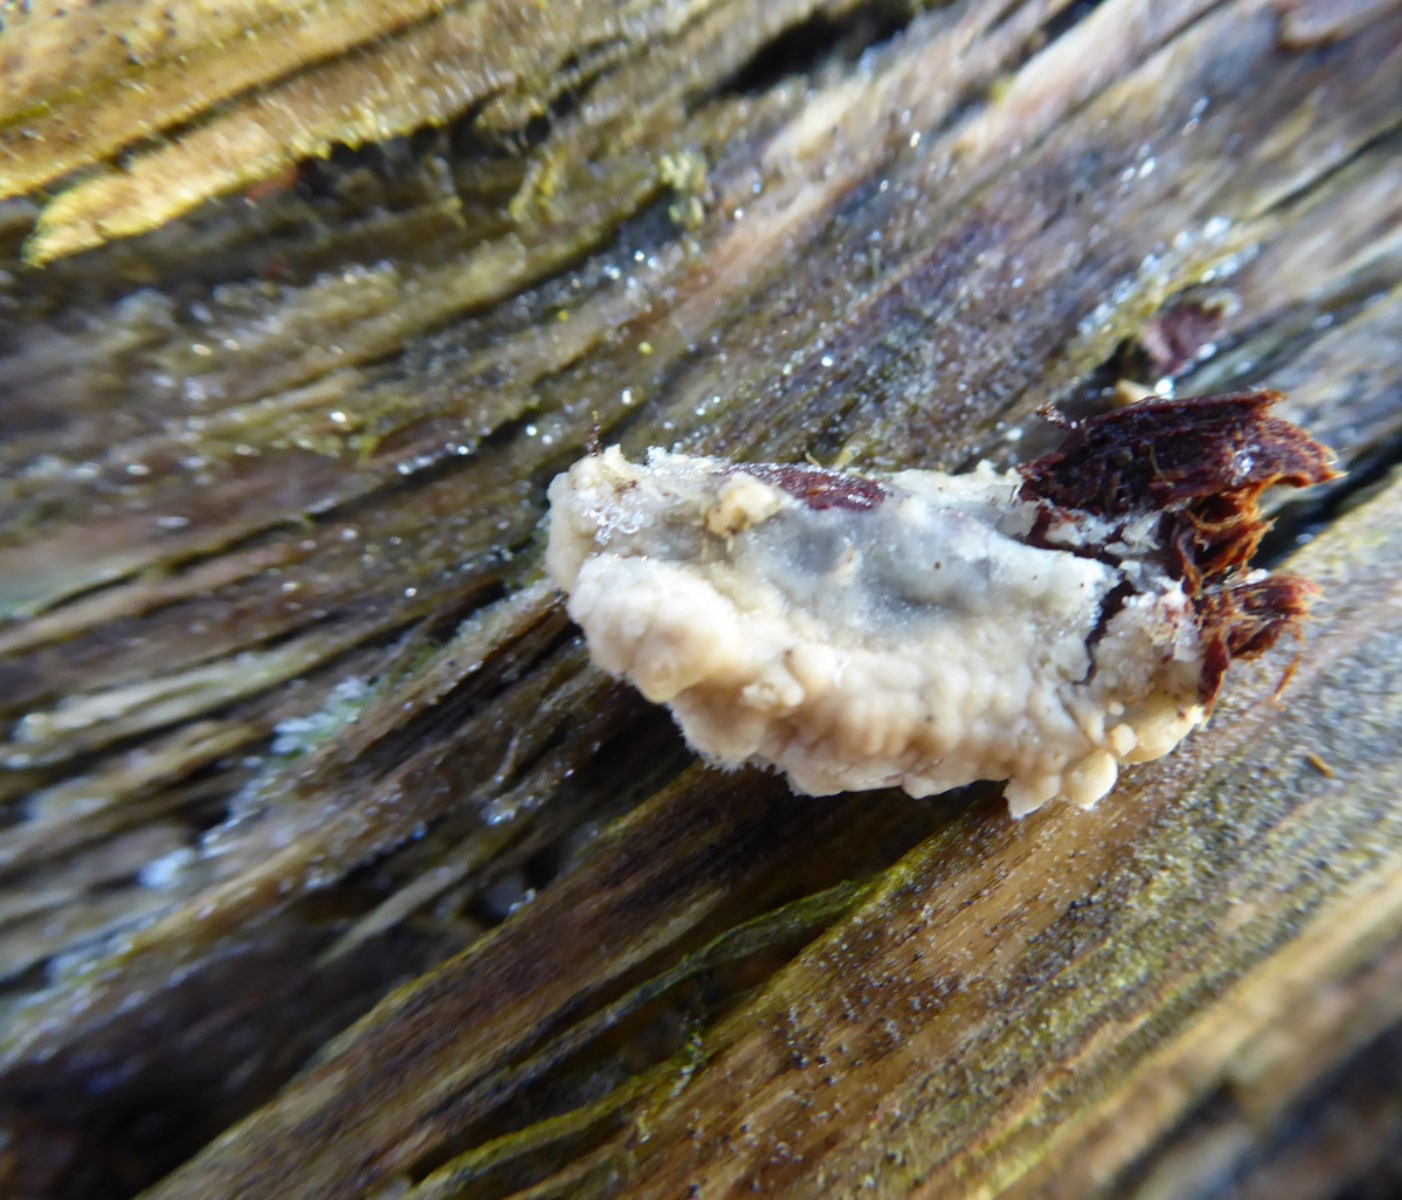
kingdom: Fungi
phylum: Basidiomycota
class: Agaricomycetes
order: Corticiales
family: Corticiaceae
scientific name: Corticiaceae
